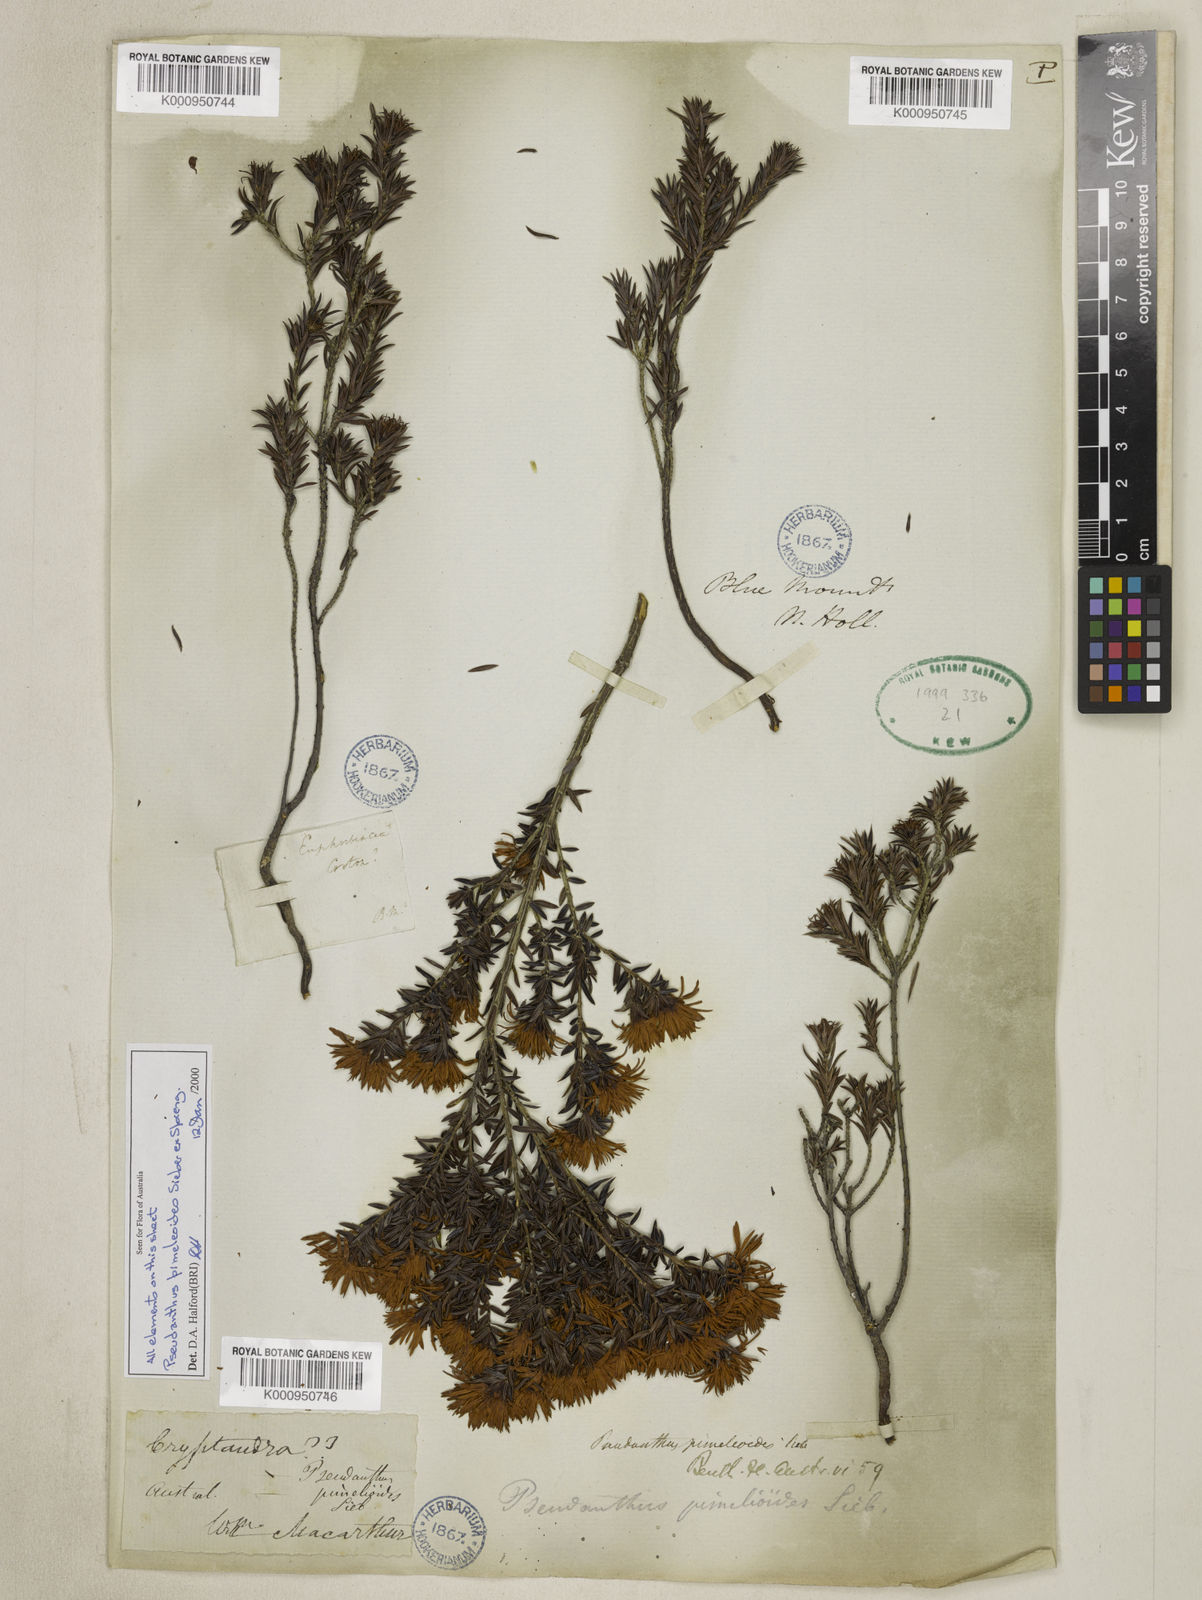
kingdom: Plantae
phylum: Tracheophyta
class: Magnoliopsida
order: Malpighiales
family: Picrodendraceae
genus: Pseudanthus
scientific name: Pseudanthus pimeleoides
